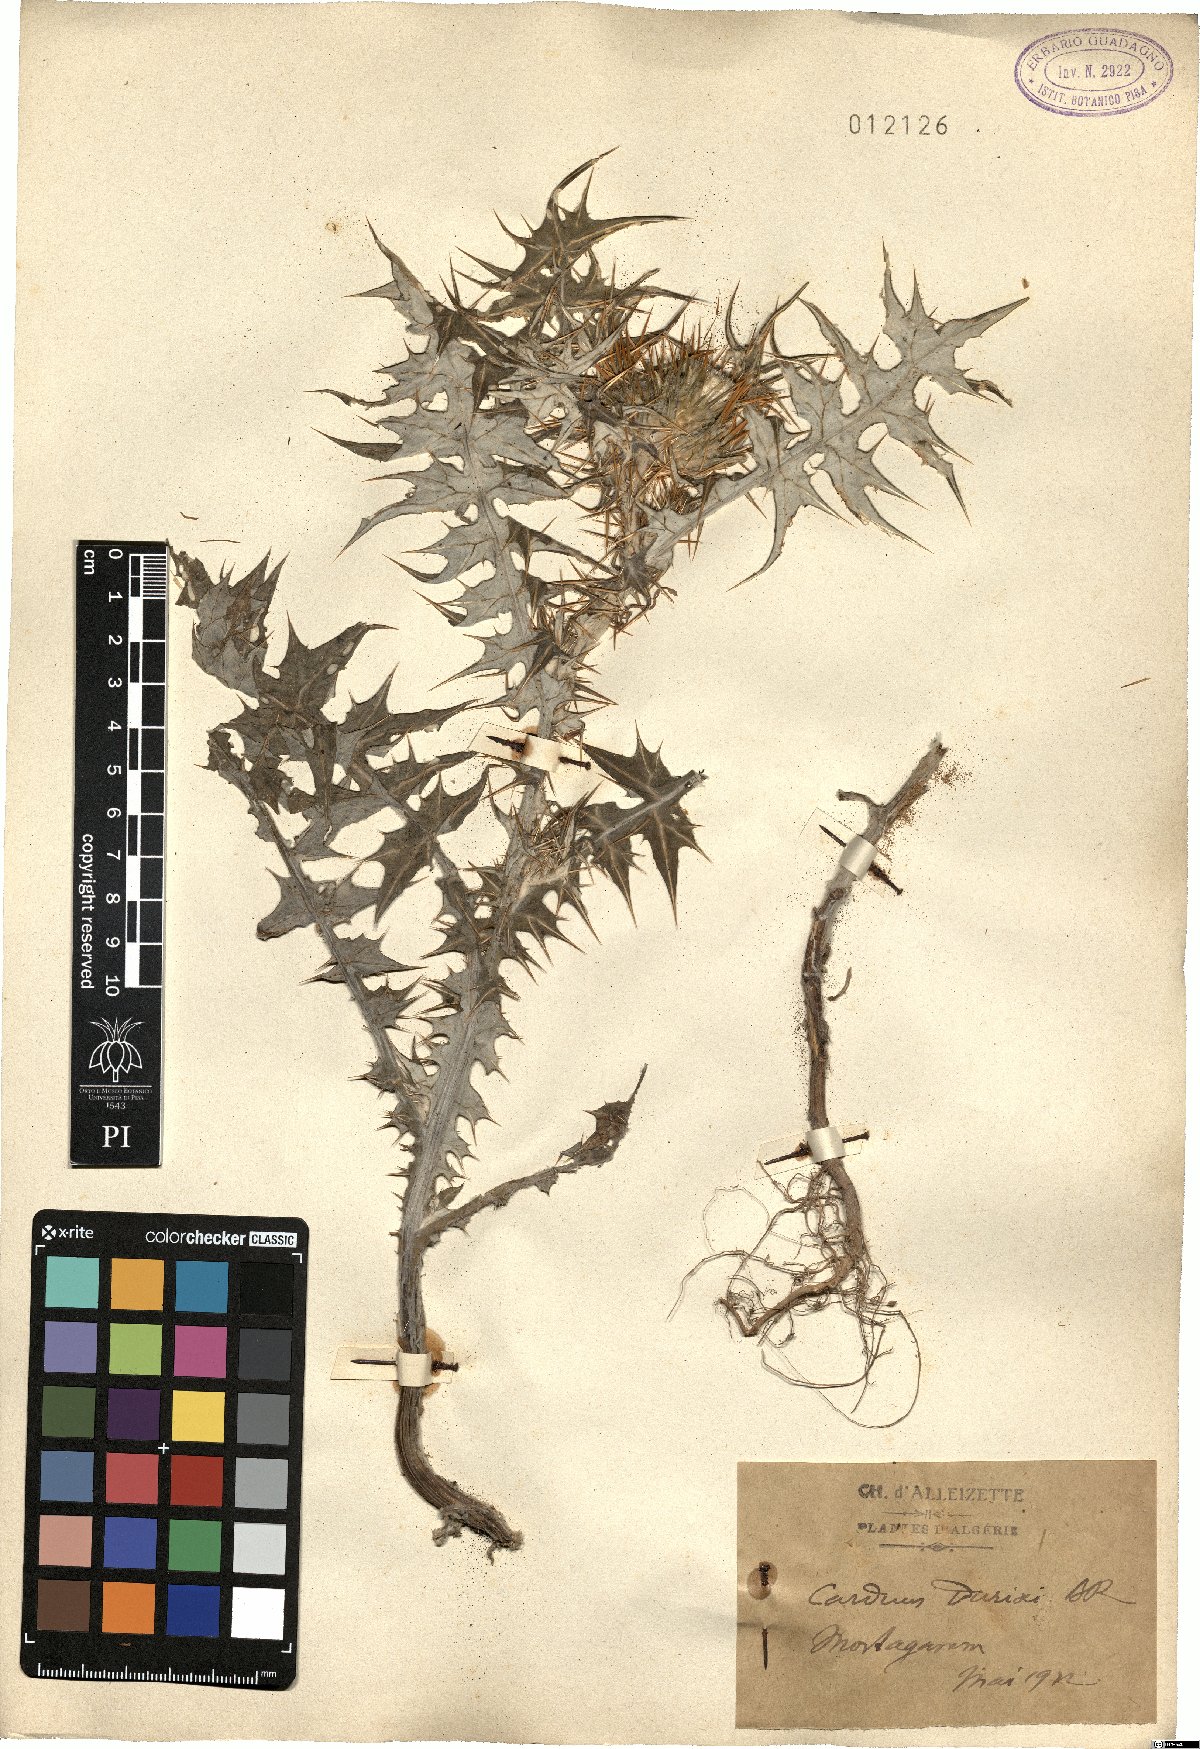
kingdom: Plantae
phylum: Tracheophyta
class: Magnoliopsida
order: Asterales
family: Asteraceae
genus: Carduus
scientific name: Carduus spachianus
